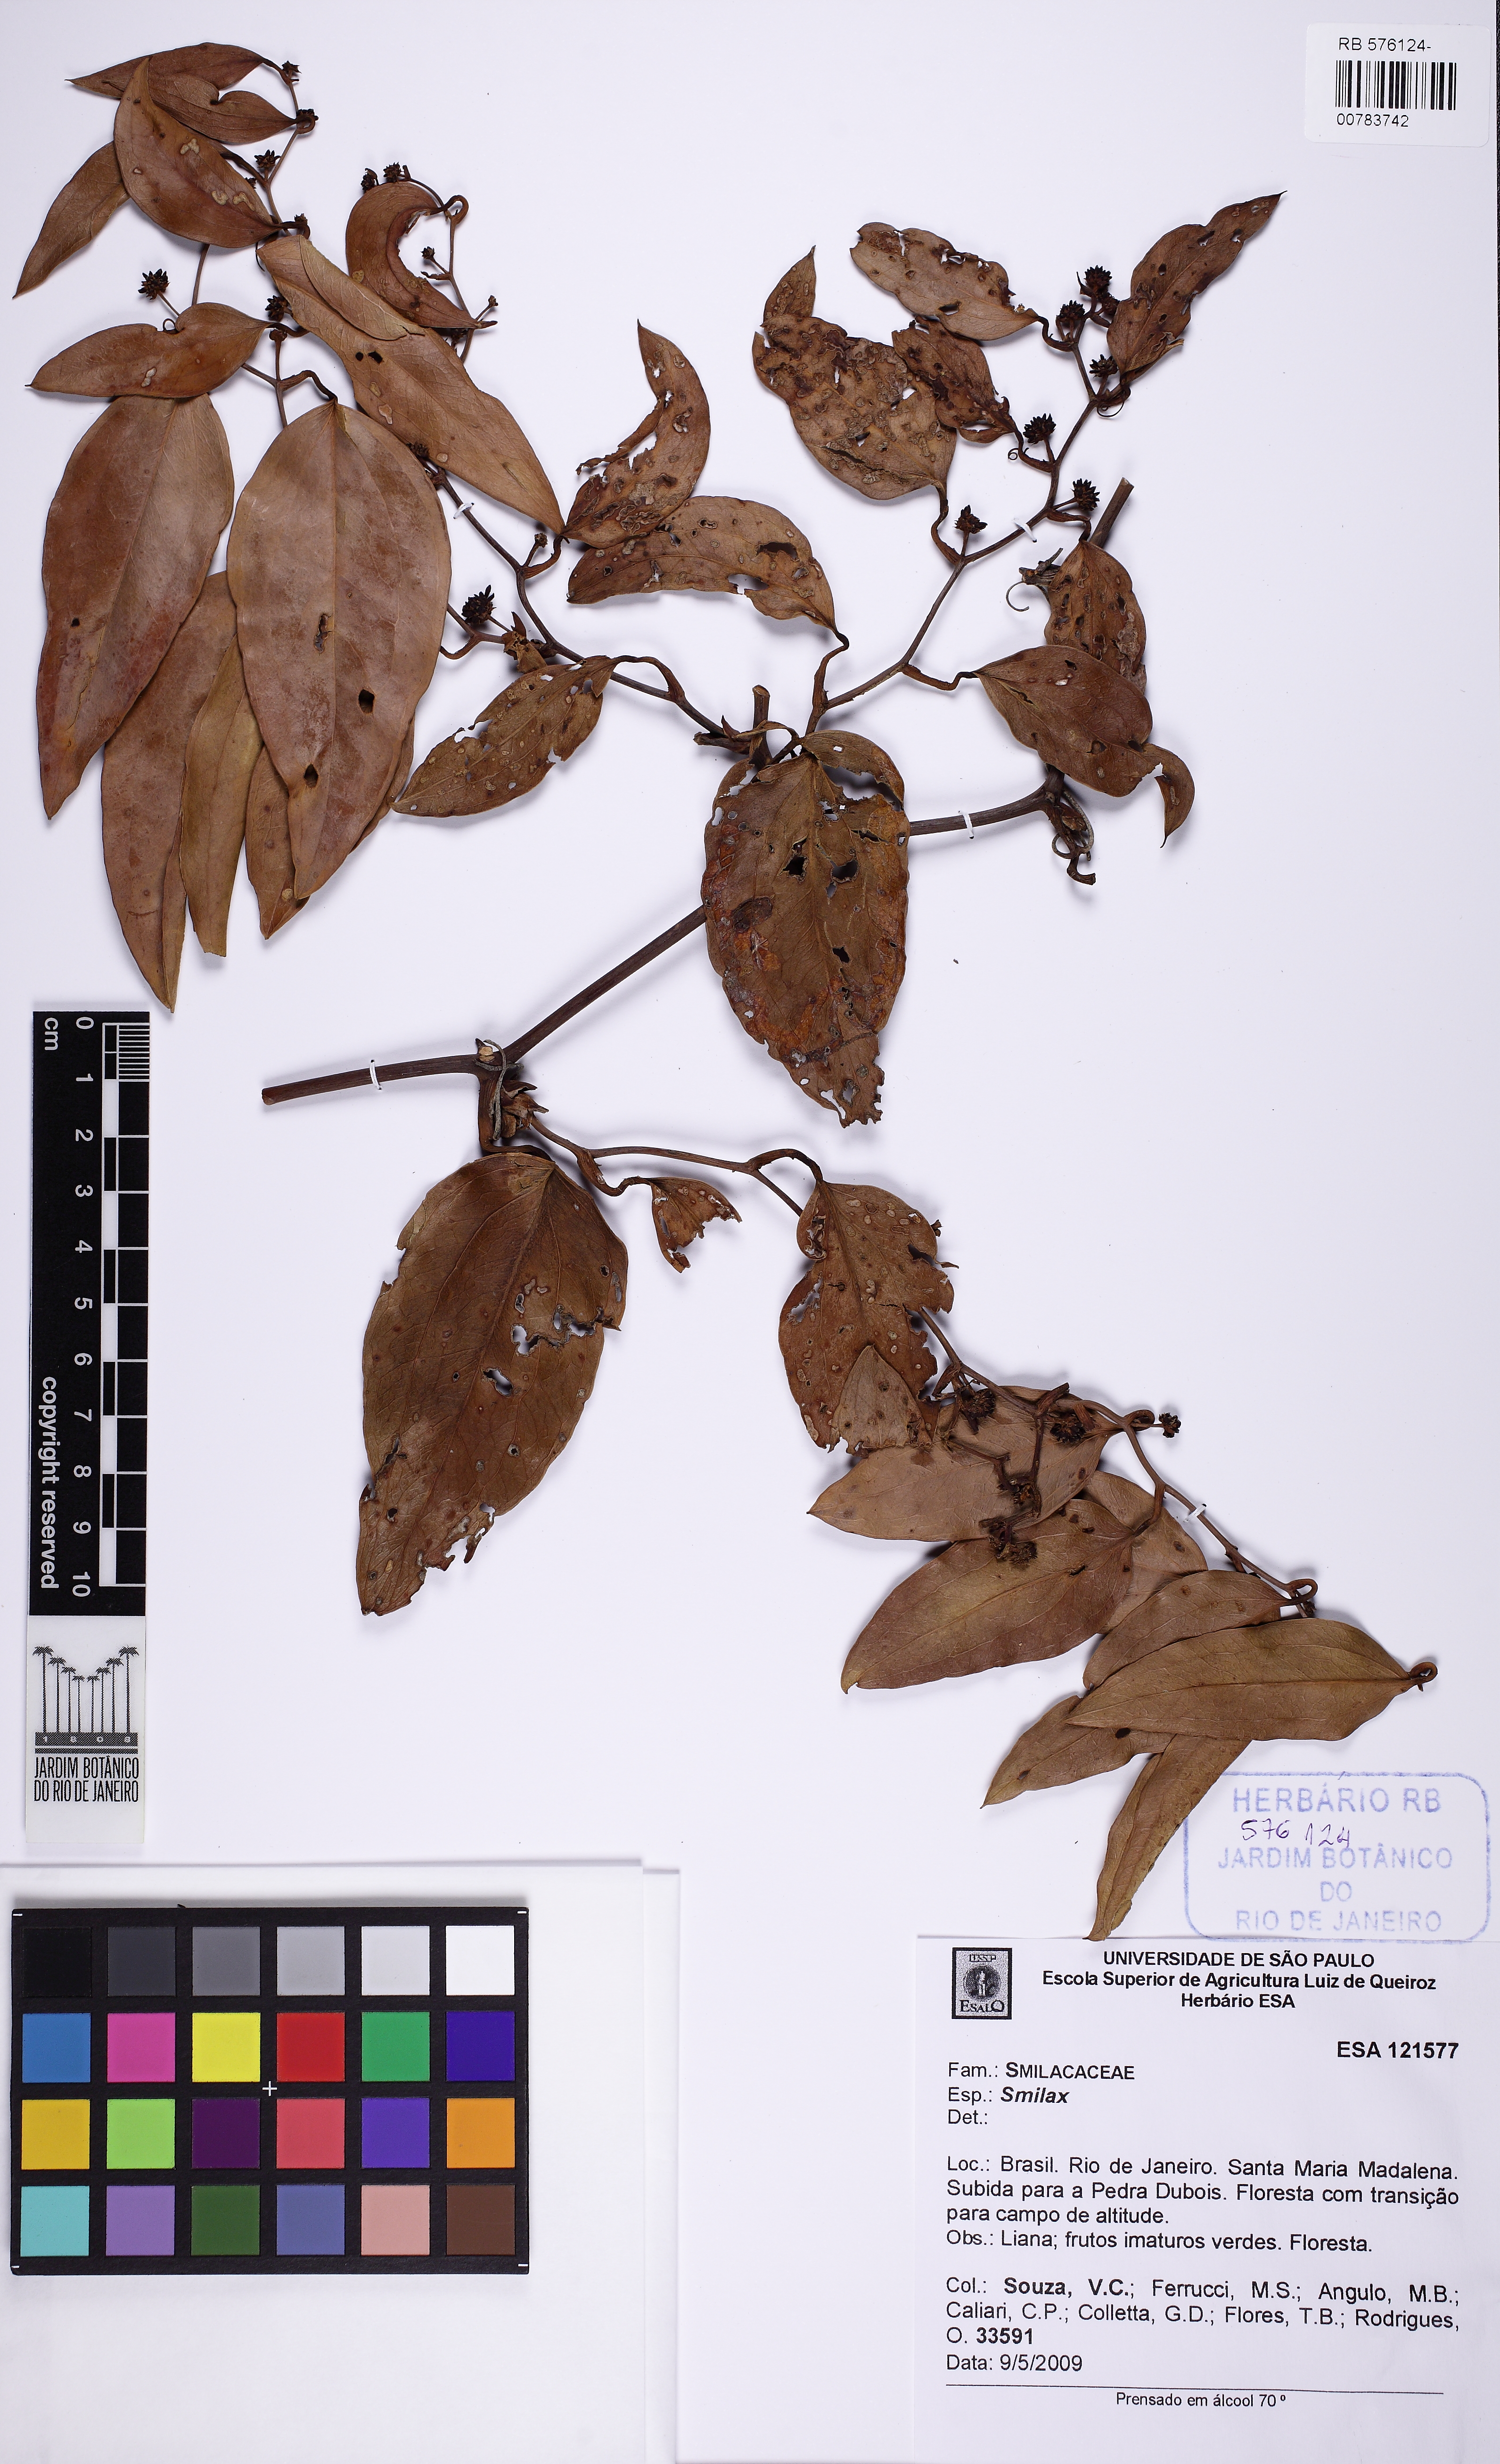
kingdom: Plantae
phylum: Tracheophyta
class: Liliopsida
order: Liliales
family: Smilacaceae
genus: Smilax
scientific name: Smilax
